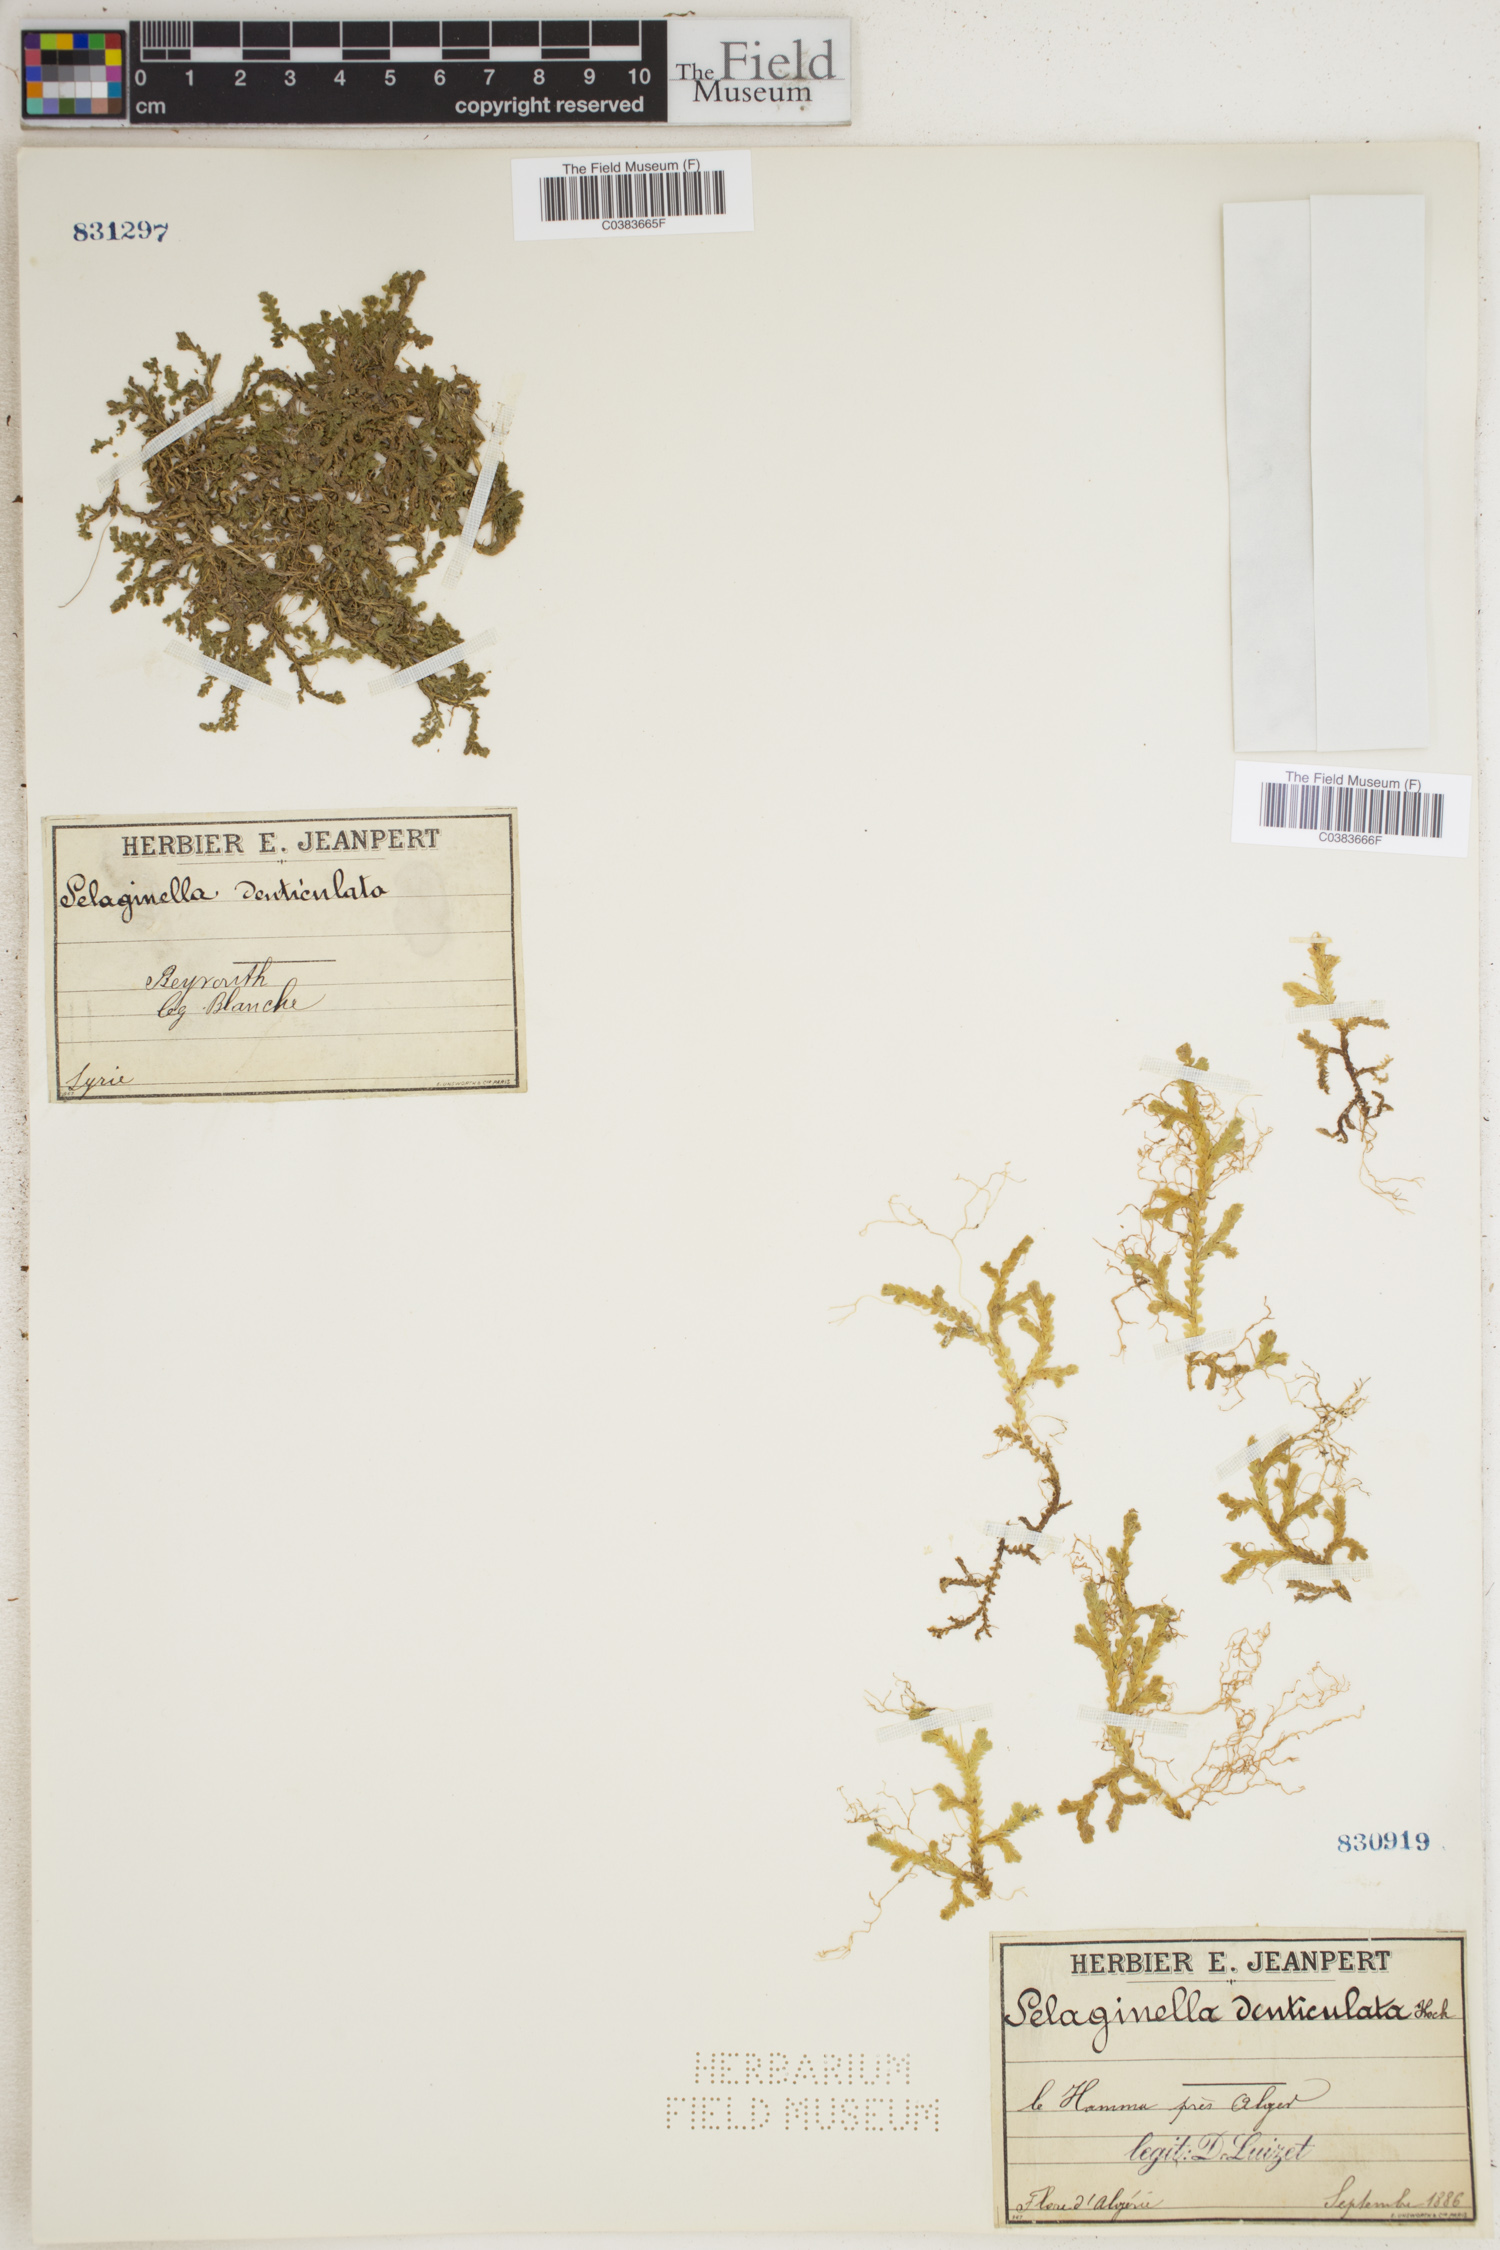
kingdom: Plantae
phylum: Tracheophyta
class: Lycopodiopsida
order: Selaginellales
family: Selaginellaceae
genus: Selaginella
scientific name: Selaginella denticulata
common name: Toothed-leaved clubmoss
